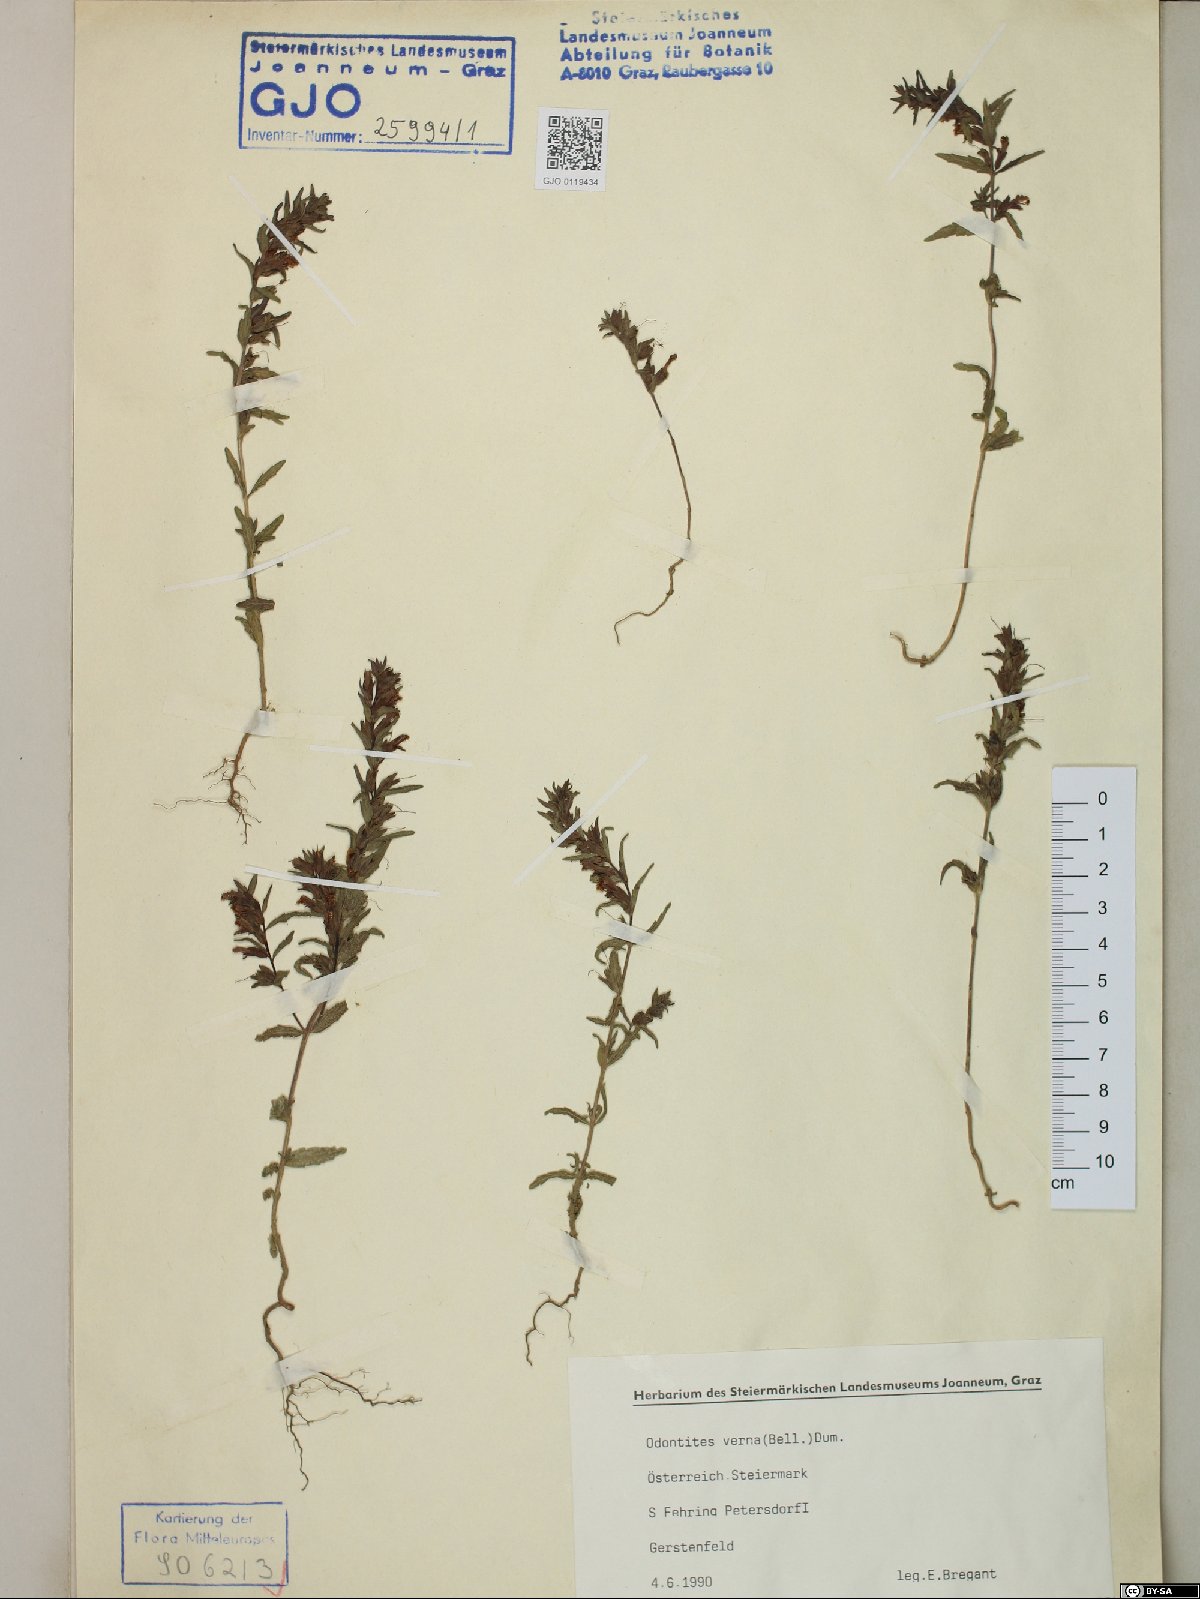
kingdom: Plantae
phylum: Tracheophyta
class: Magnoliopsida
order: Lamiales
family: Orobanchaceae
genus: Odontites
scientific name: Odontites vernus
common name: Red bartsia
